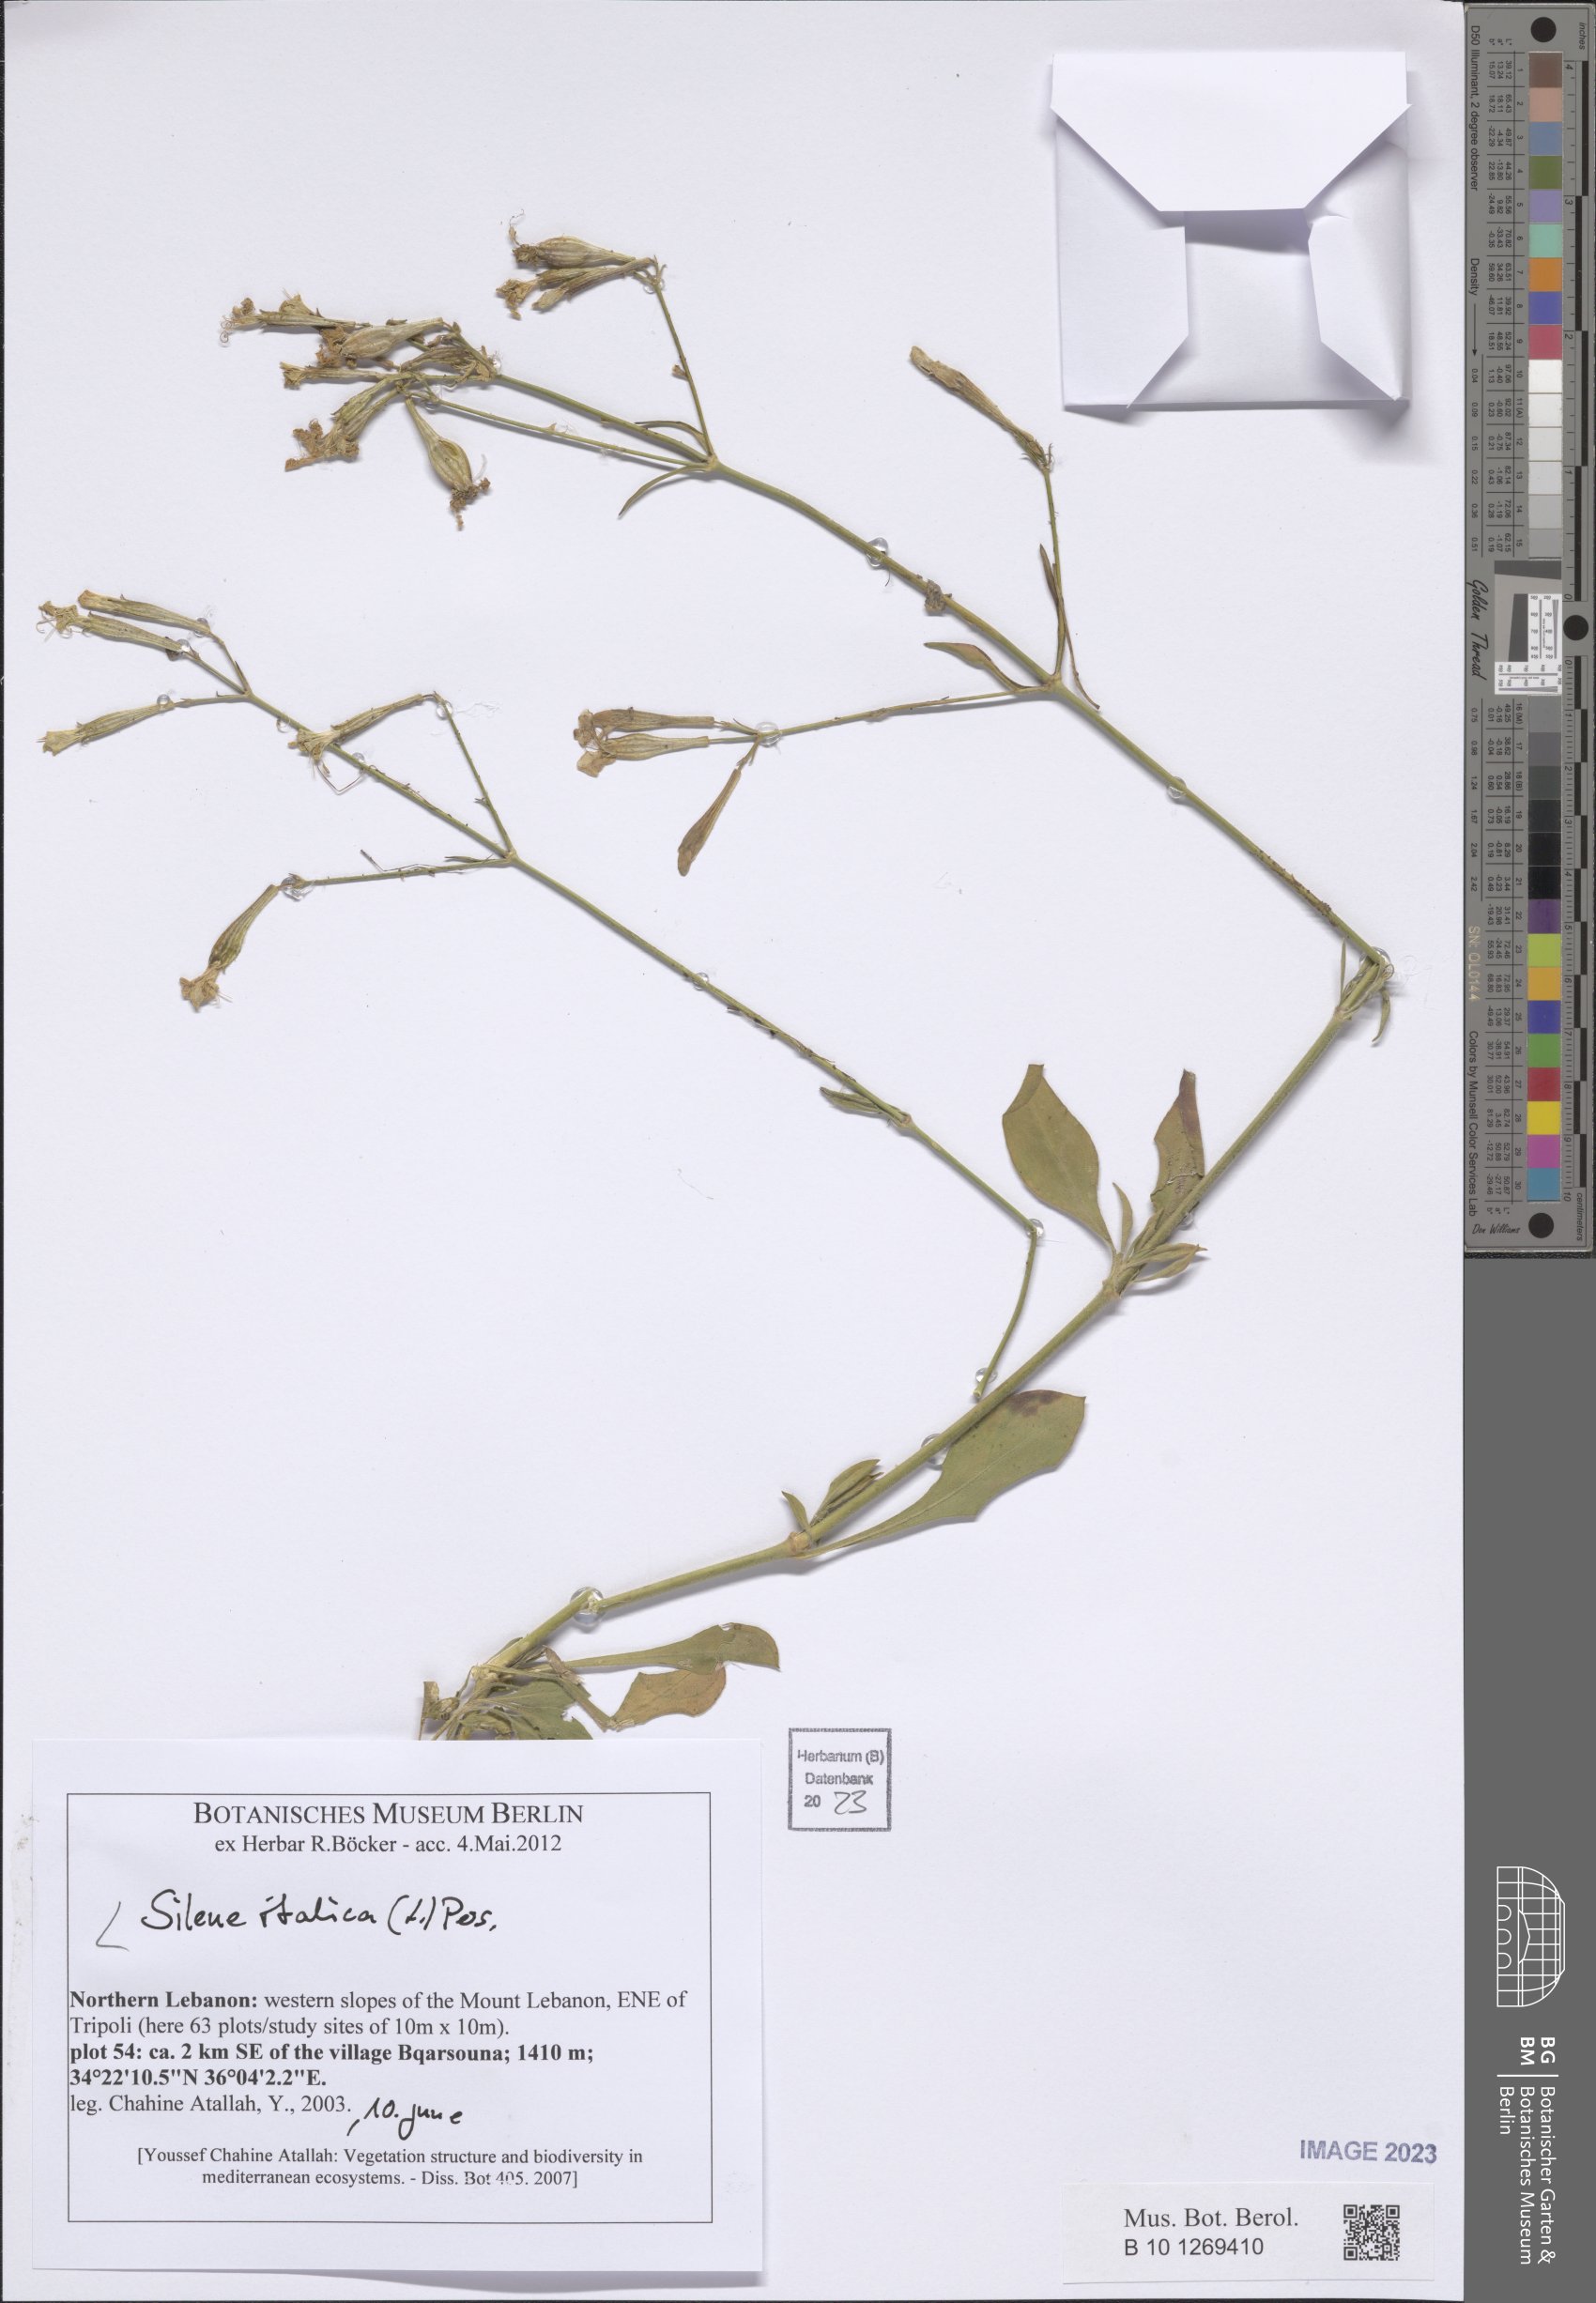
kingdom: Plantae
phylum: Tracheophyta
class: Magnoliopsida
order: Caryophyllales
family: Caryophyllaceae
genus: Silene
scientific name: Silene italica
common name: Italian catchfly
